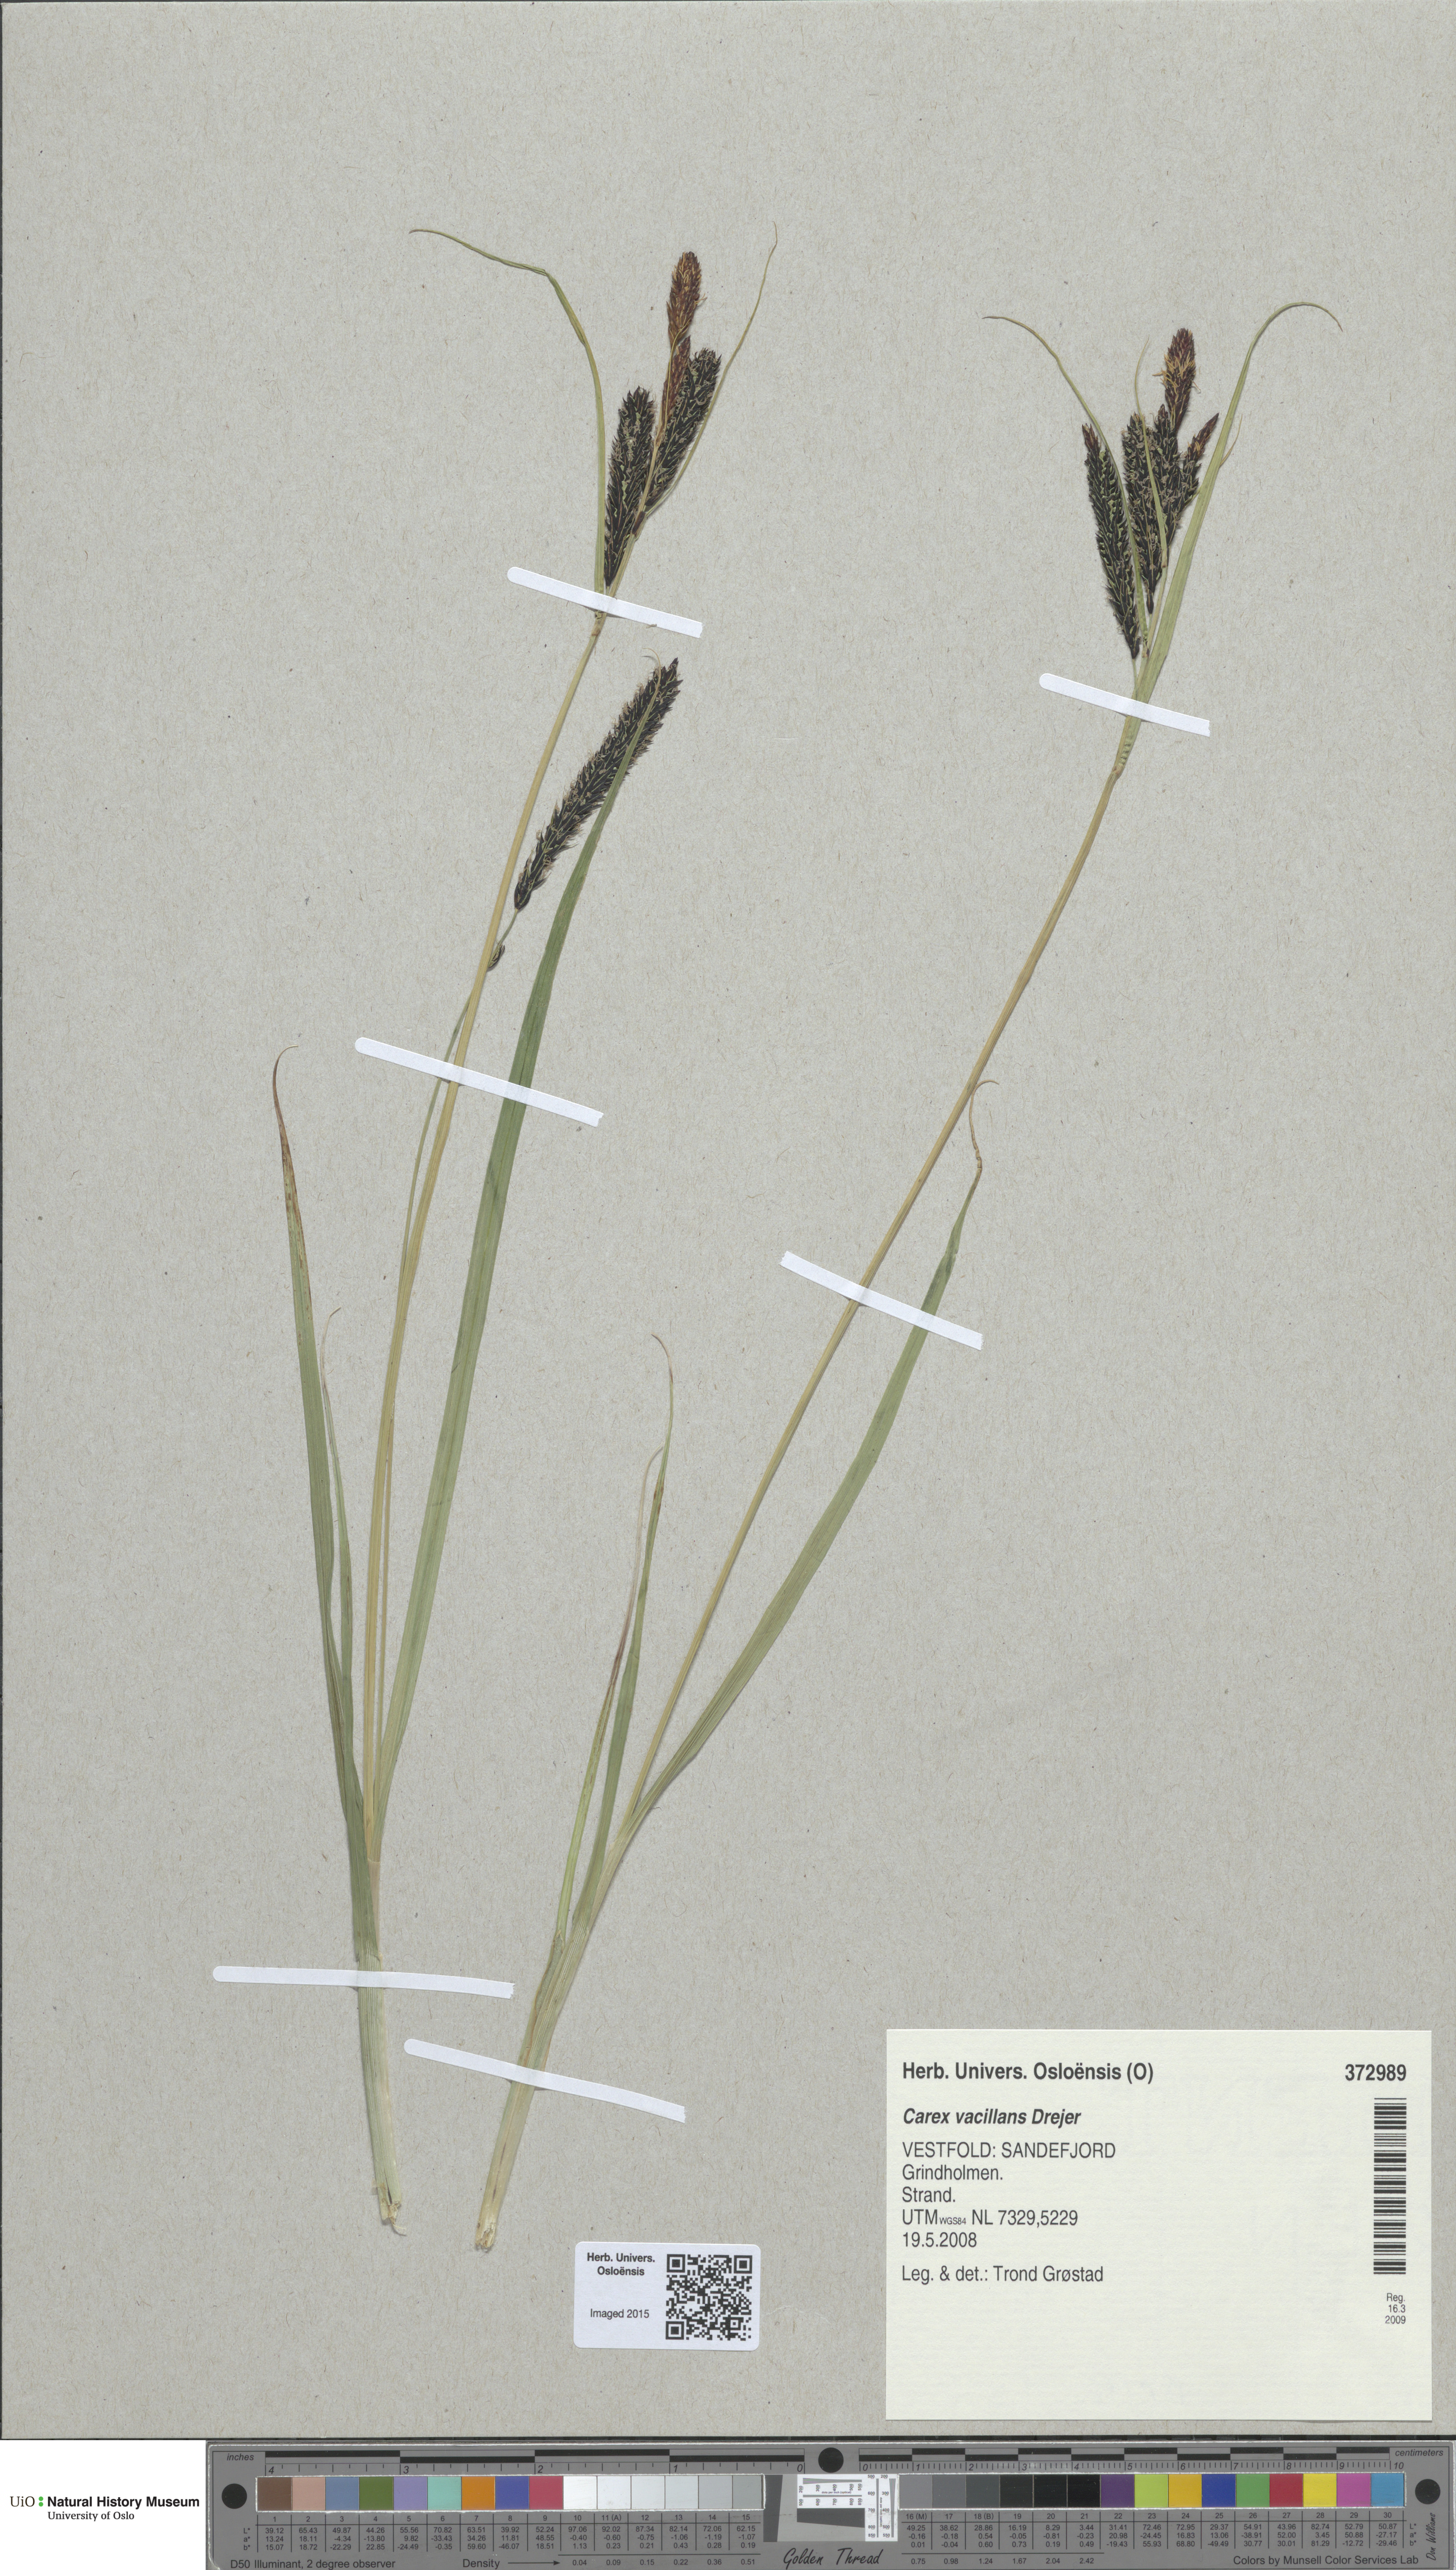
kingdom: Plantae
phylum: Tracheophyta
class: Liliopsida
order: Poales
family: Cyperaceae
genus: Carex
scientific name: Carex vacillans
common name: Sedge
